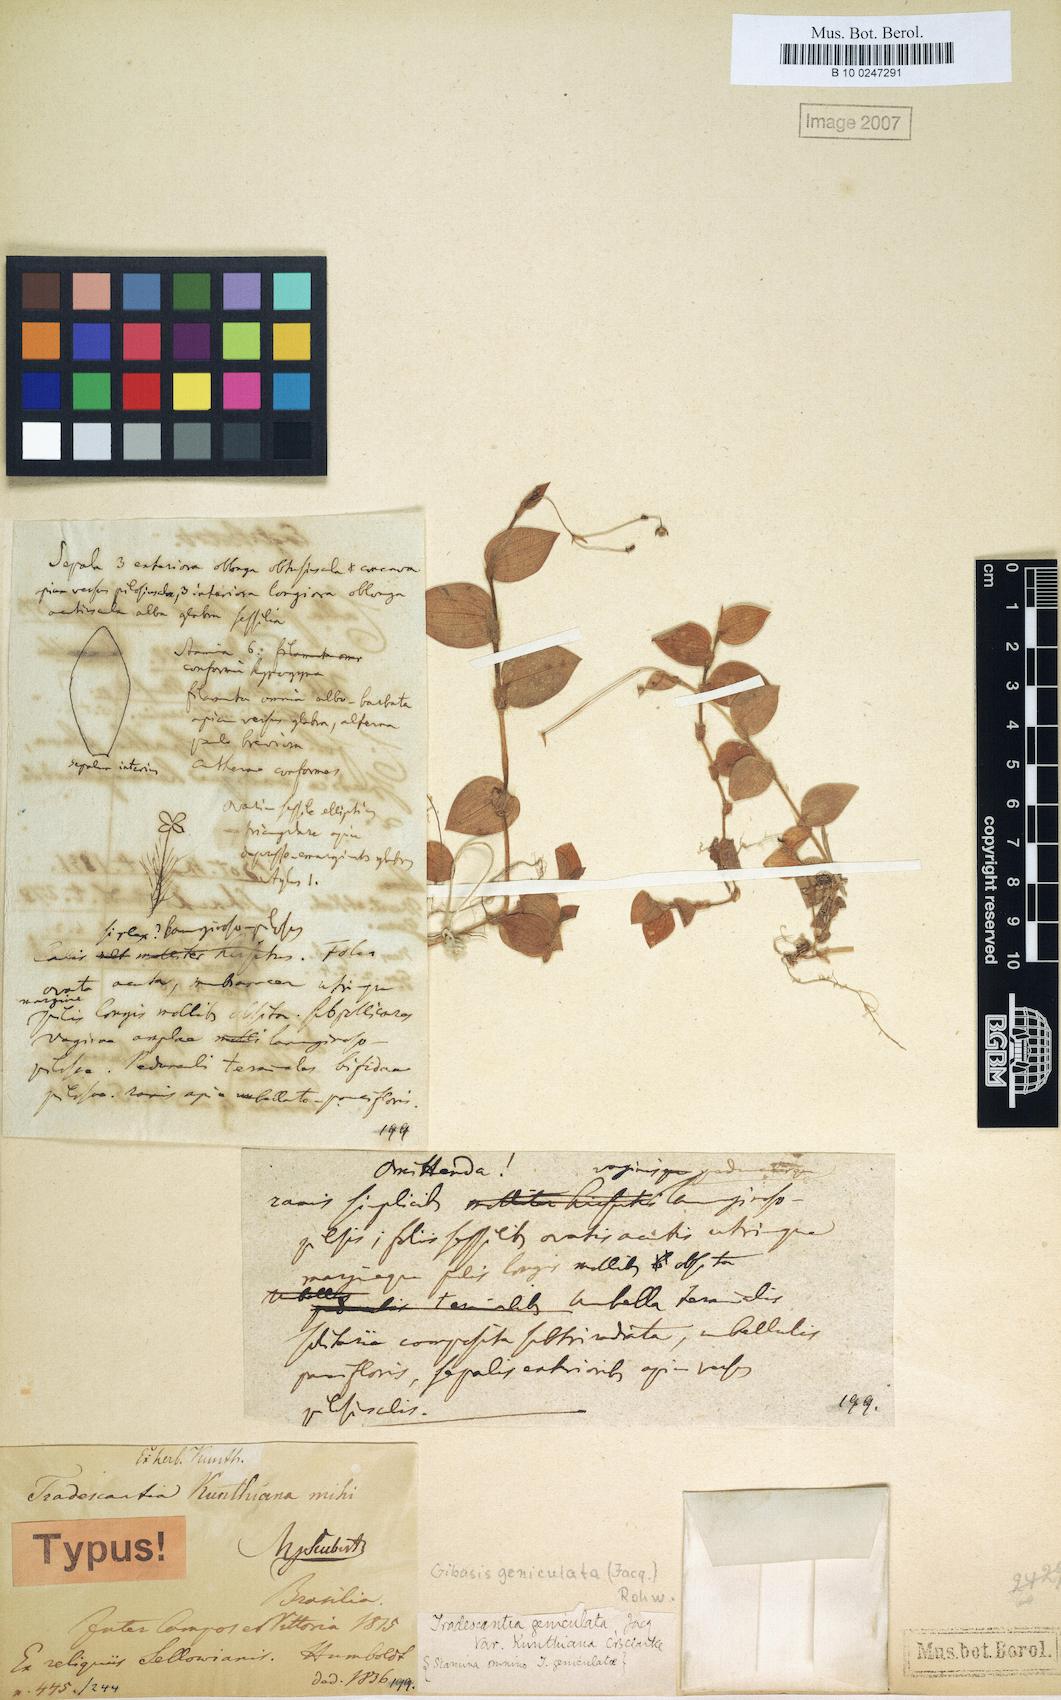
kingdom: Plantae
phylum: Tracheophyta
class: Liliopsida
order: Commelinales
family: Commelinaceae
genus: Gibasis
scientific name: Gibasis geniculata
